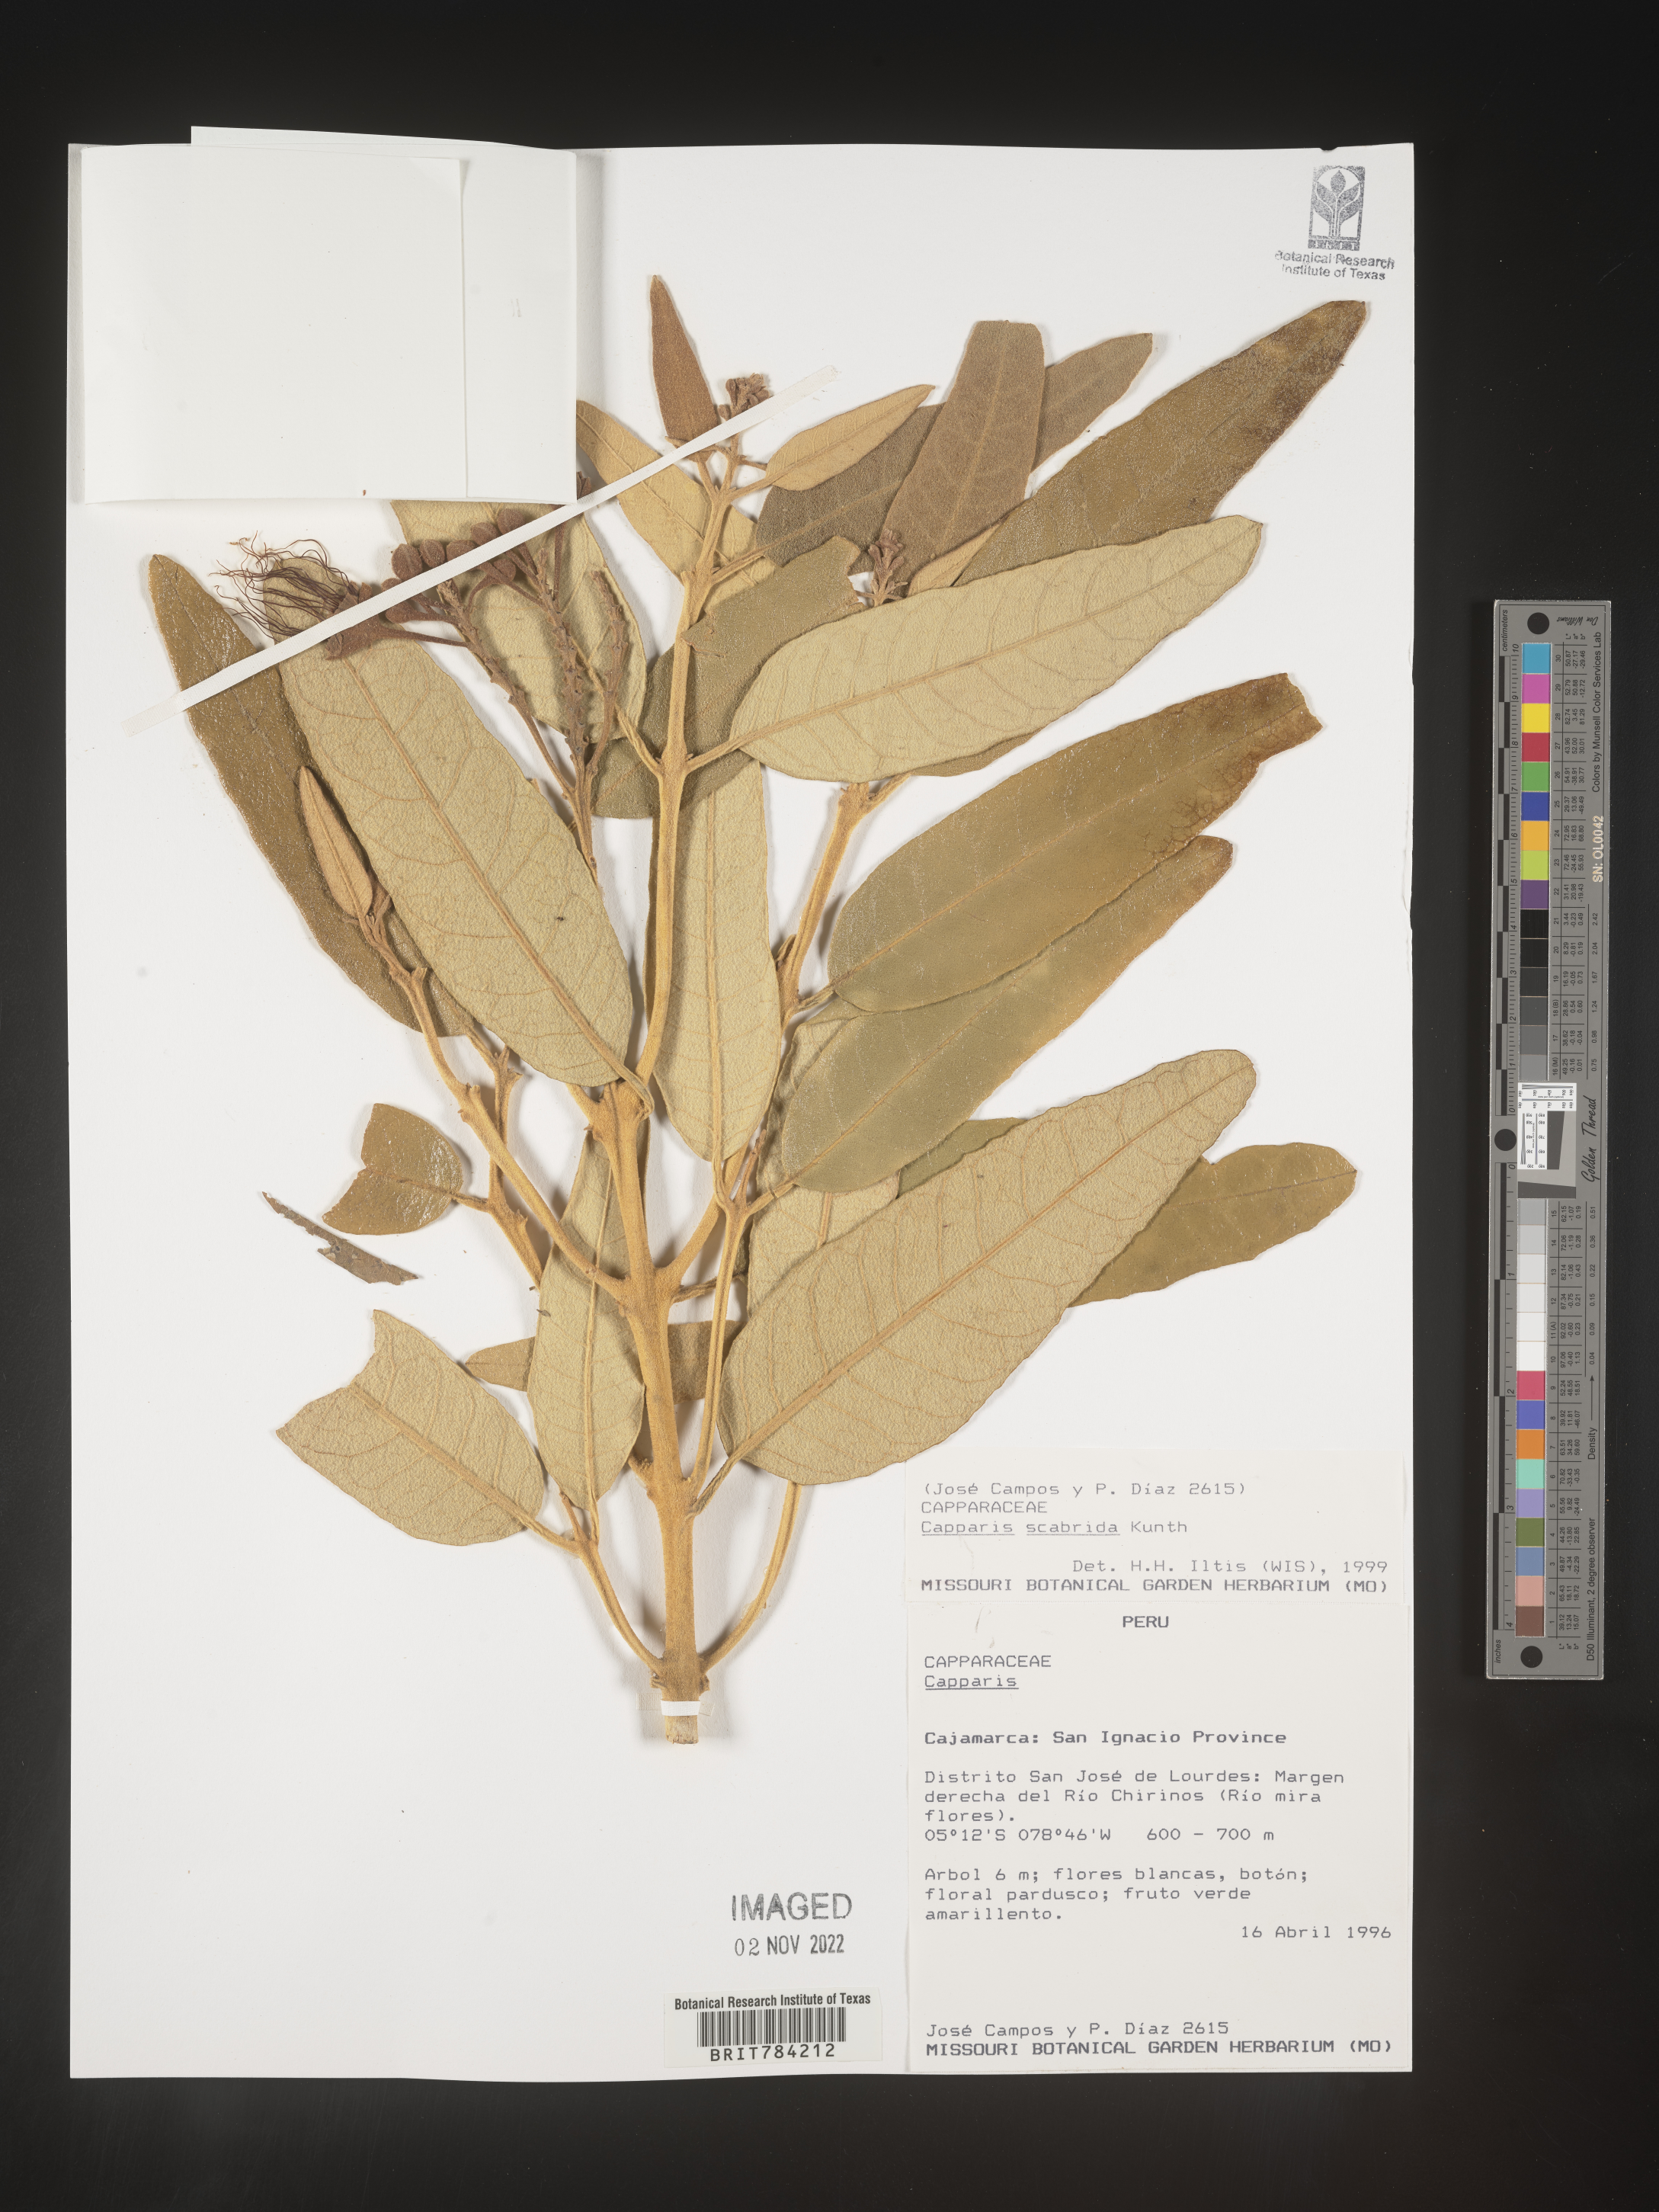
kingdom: Plantae
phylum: Tracheophyta
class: Magnoliopsida
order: Brassicales
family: Capparaceae
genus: Capparis
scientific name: Capparis
